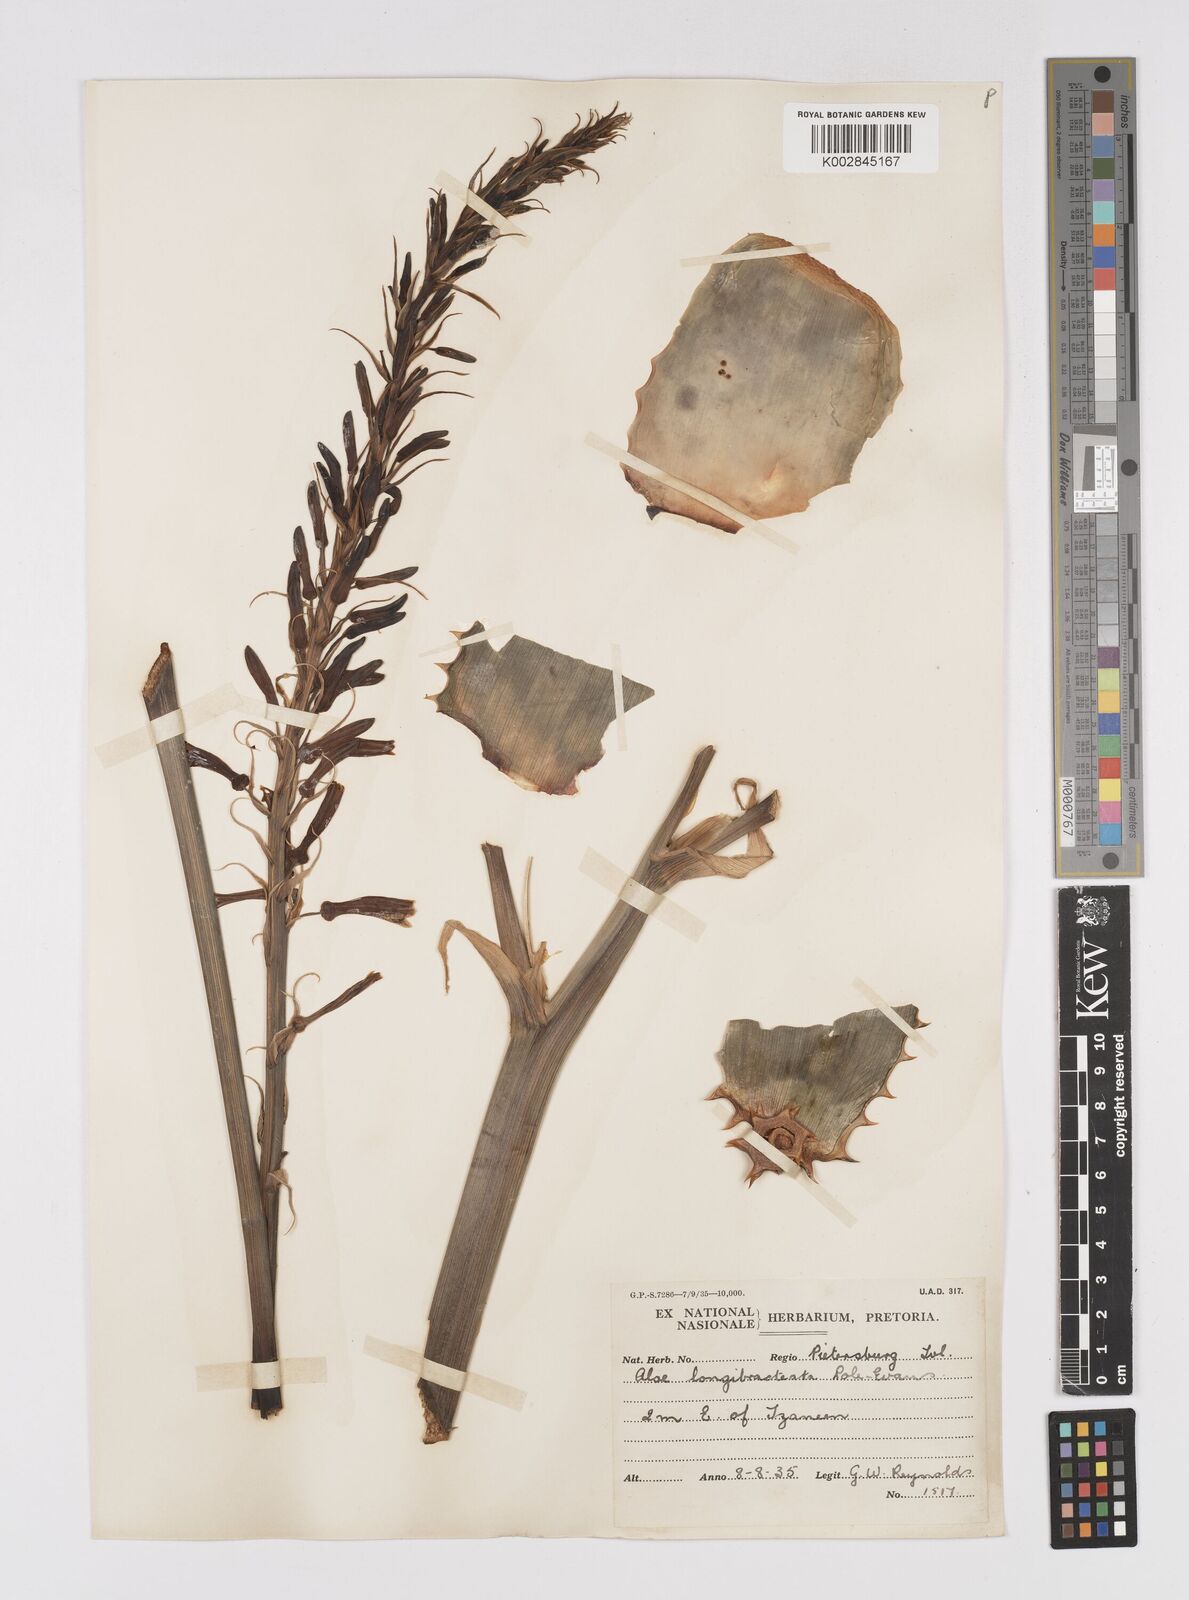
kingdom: Plantae
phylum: Tracheophyta
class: Liliopsida
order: Asparagales
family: Asphodelaceae
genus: Aloe
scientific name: Aloe longibracteata
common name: Limpopo spotted aloe
